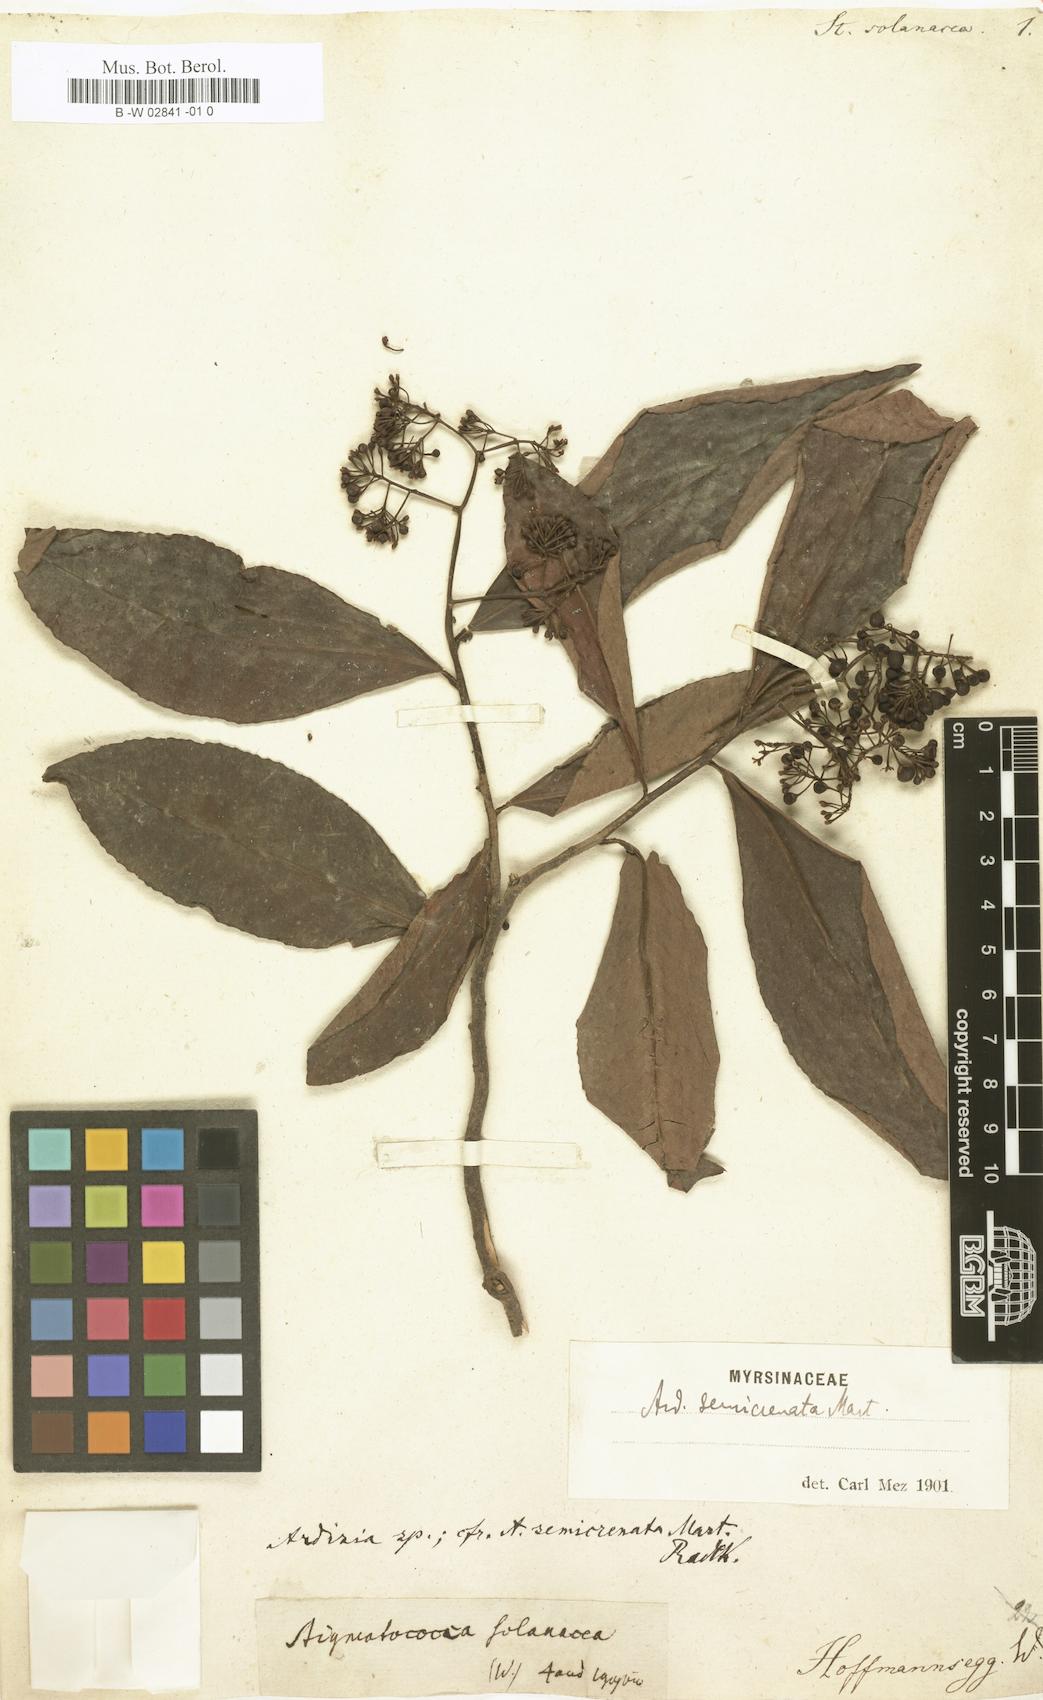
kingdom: Plantae
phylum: Tracheophyta
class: Magnoliopsida
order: Ericales
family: Primulaceae
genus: Ardisia
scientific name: Ardisia guianensis
